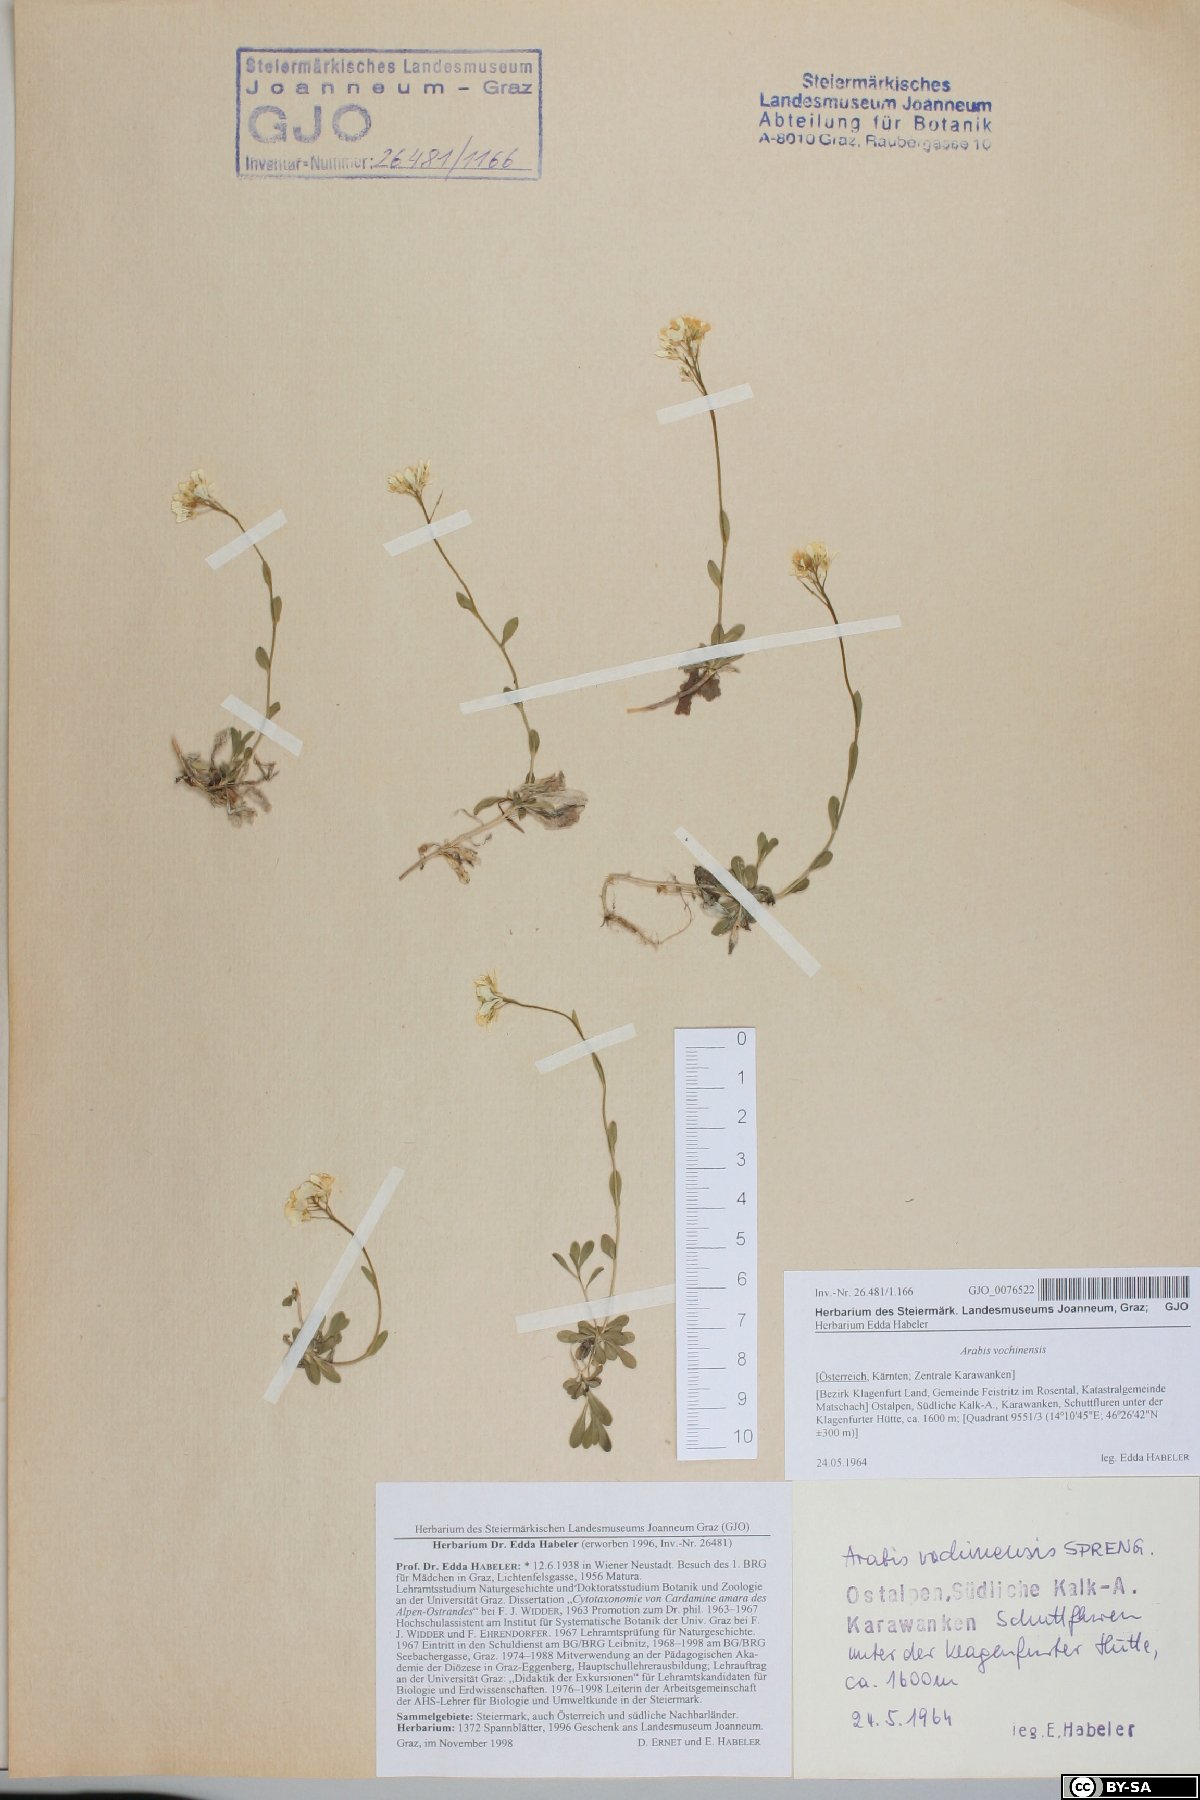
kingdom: Plantae
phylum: Tracheophyta
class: Magnoliopsida
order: Brassicales
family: Brassicaceae
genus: Arabis
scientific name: Arabis vochinensis
